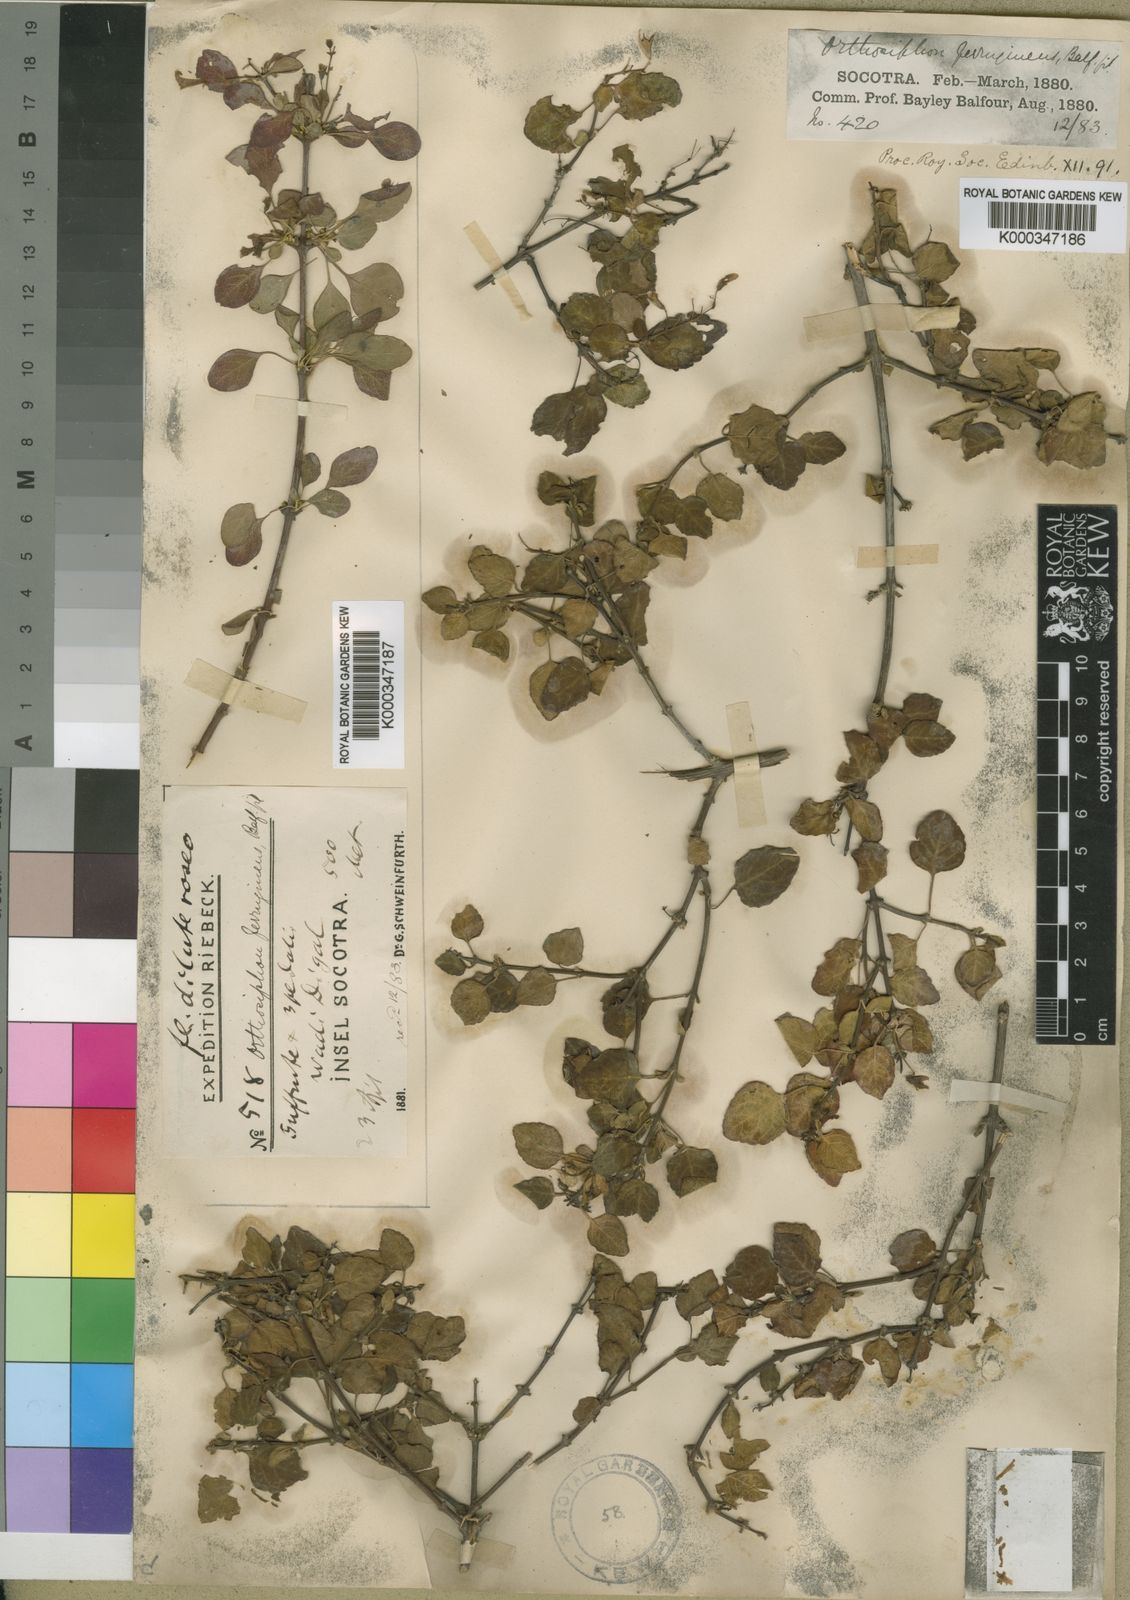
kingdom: Plantae
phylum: Tracheophyta
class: Magnoliopsida
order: Lamiales
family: Lamiaceae
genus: Orthosiphon
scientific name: Orthosiphon ferrugineus
